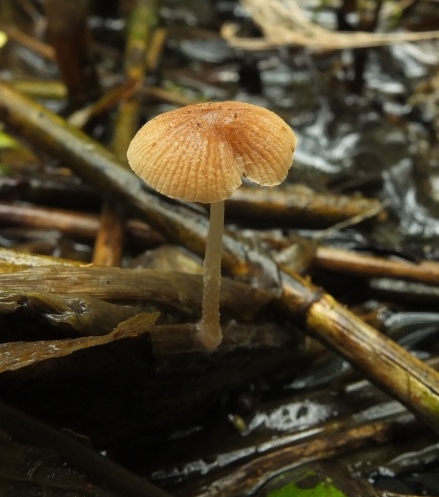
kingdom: Fungi
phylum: Basidiomycota
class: Agaricomycetes
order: Agaricales
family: Psathyrellaceae
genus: Candolleomyces
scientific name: Candolleomyces typhae
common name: dunhammer-mørkhat
